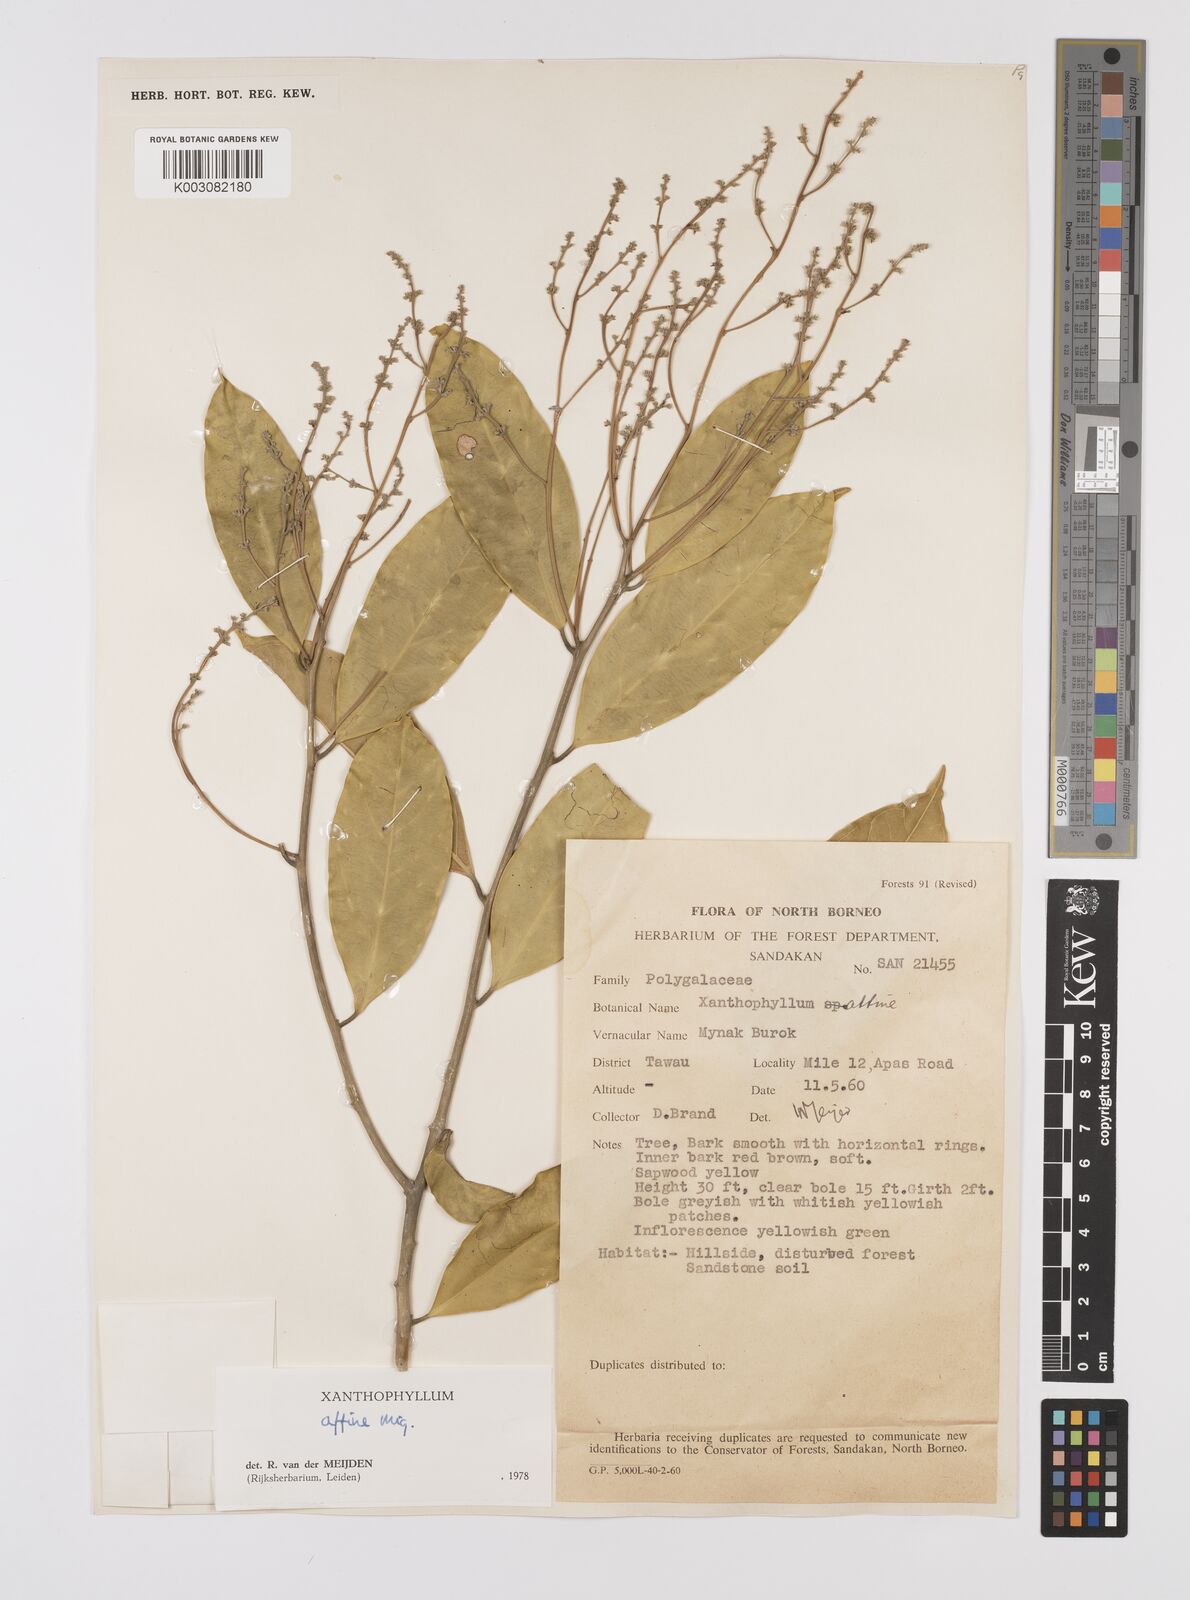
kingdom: Plantae
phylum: Tracheophyta
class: Magnoliopsida
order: Fabales
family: Polygalaceae
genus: Xanthophyllum
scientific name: Xanthophyllum flavescens
